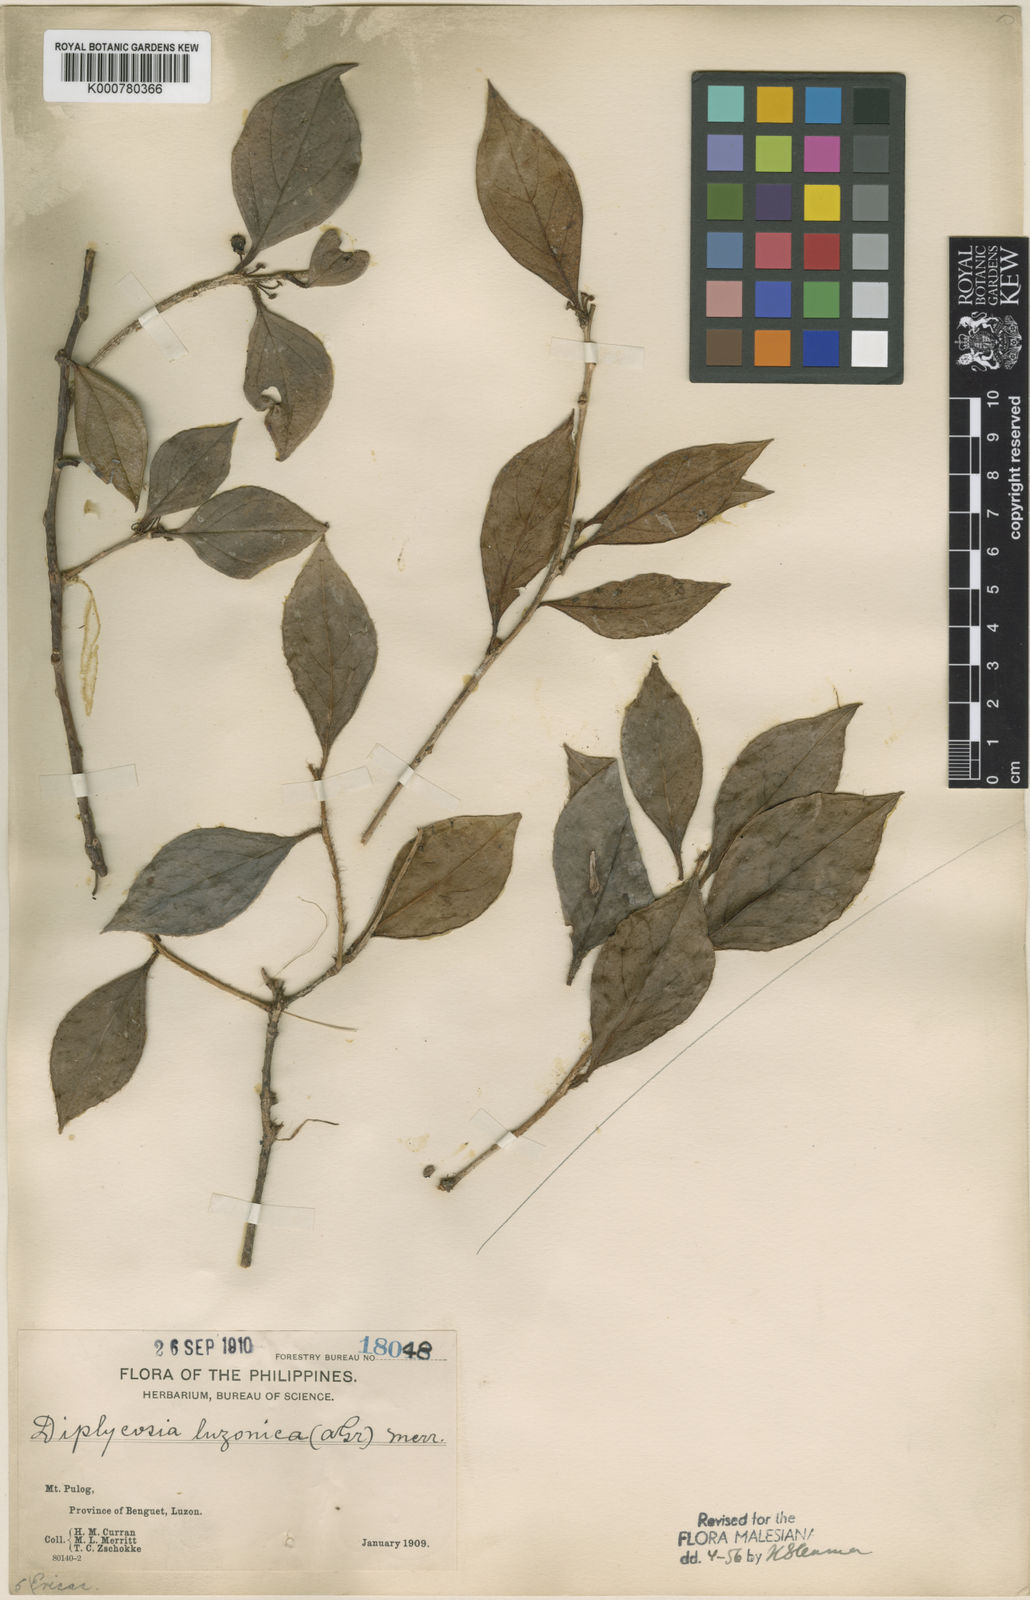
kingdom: Plantae
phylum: Tracheophyta
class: Magnoliopsida
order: Ericales
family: Ericaceae
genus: Gaultheria
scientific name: Gaultheria luzonica
